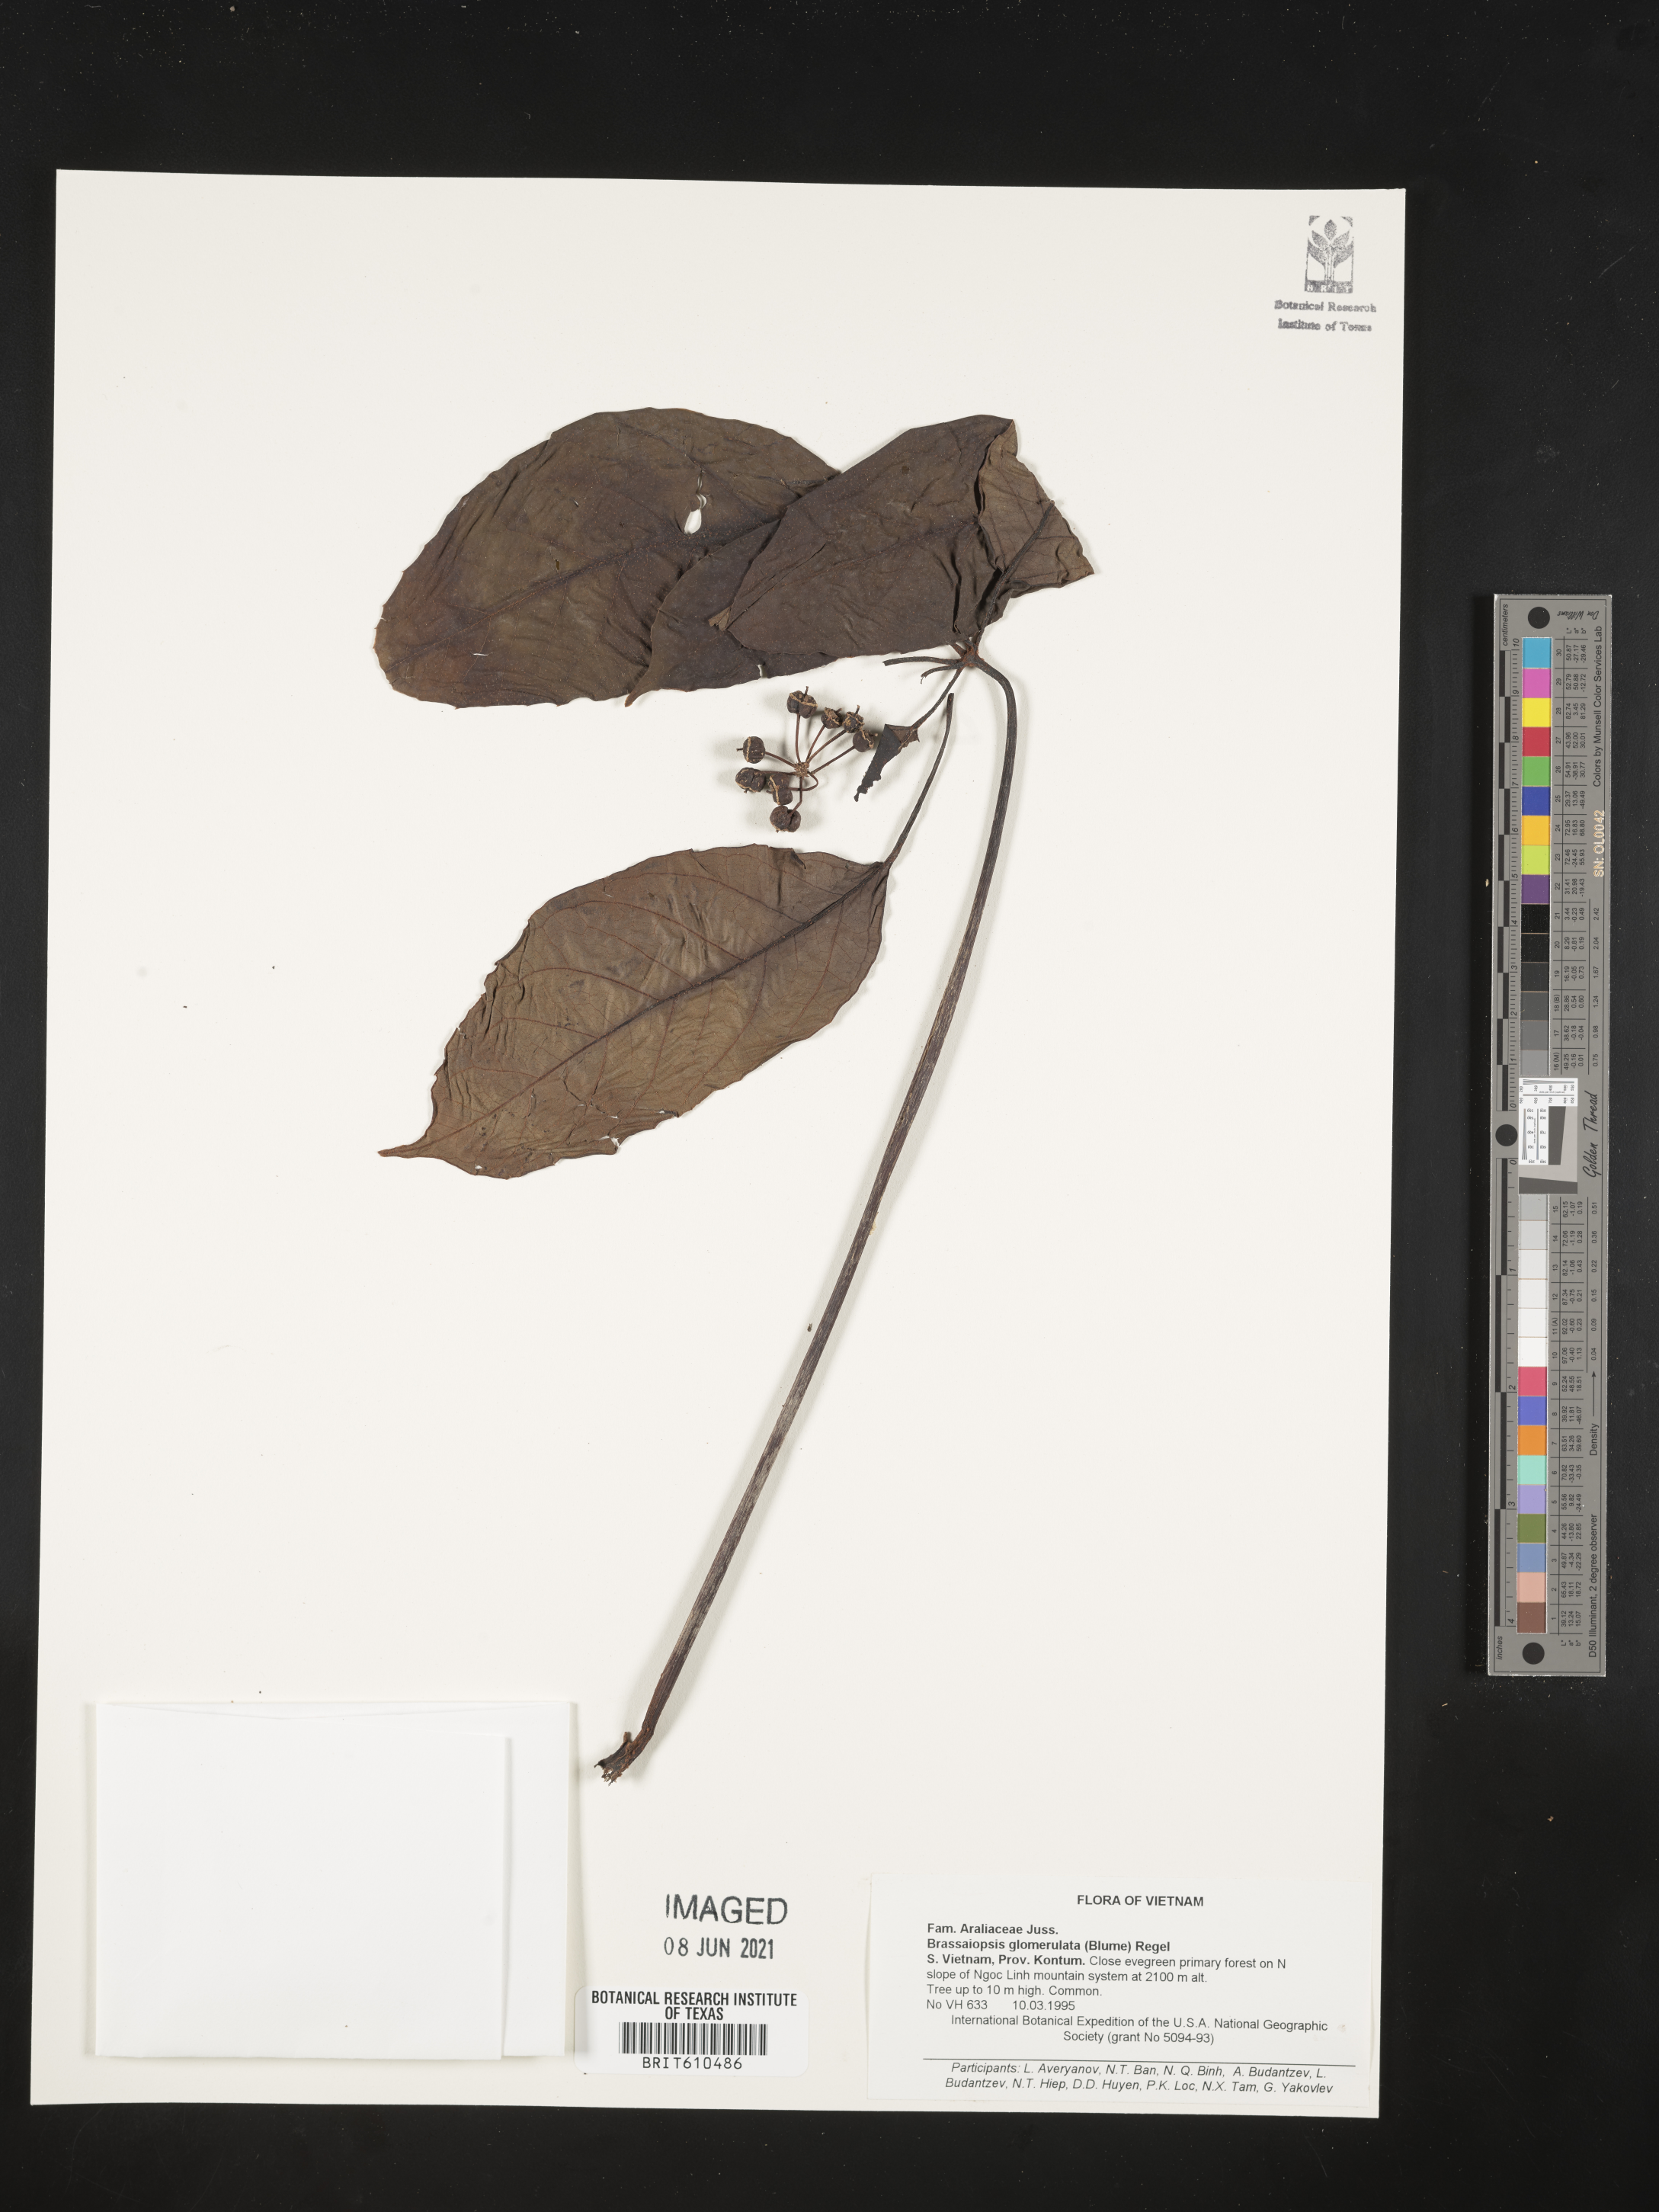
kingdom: Plantae
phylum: Tracheophyta
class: Magnoliopsida
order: Apiales
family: Araliaceae
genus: Brassaiopsis
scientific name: Brassaiopsis glomerulata
